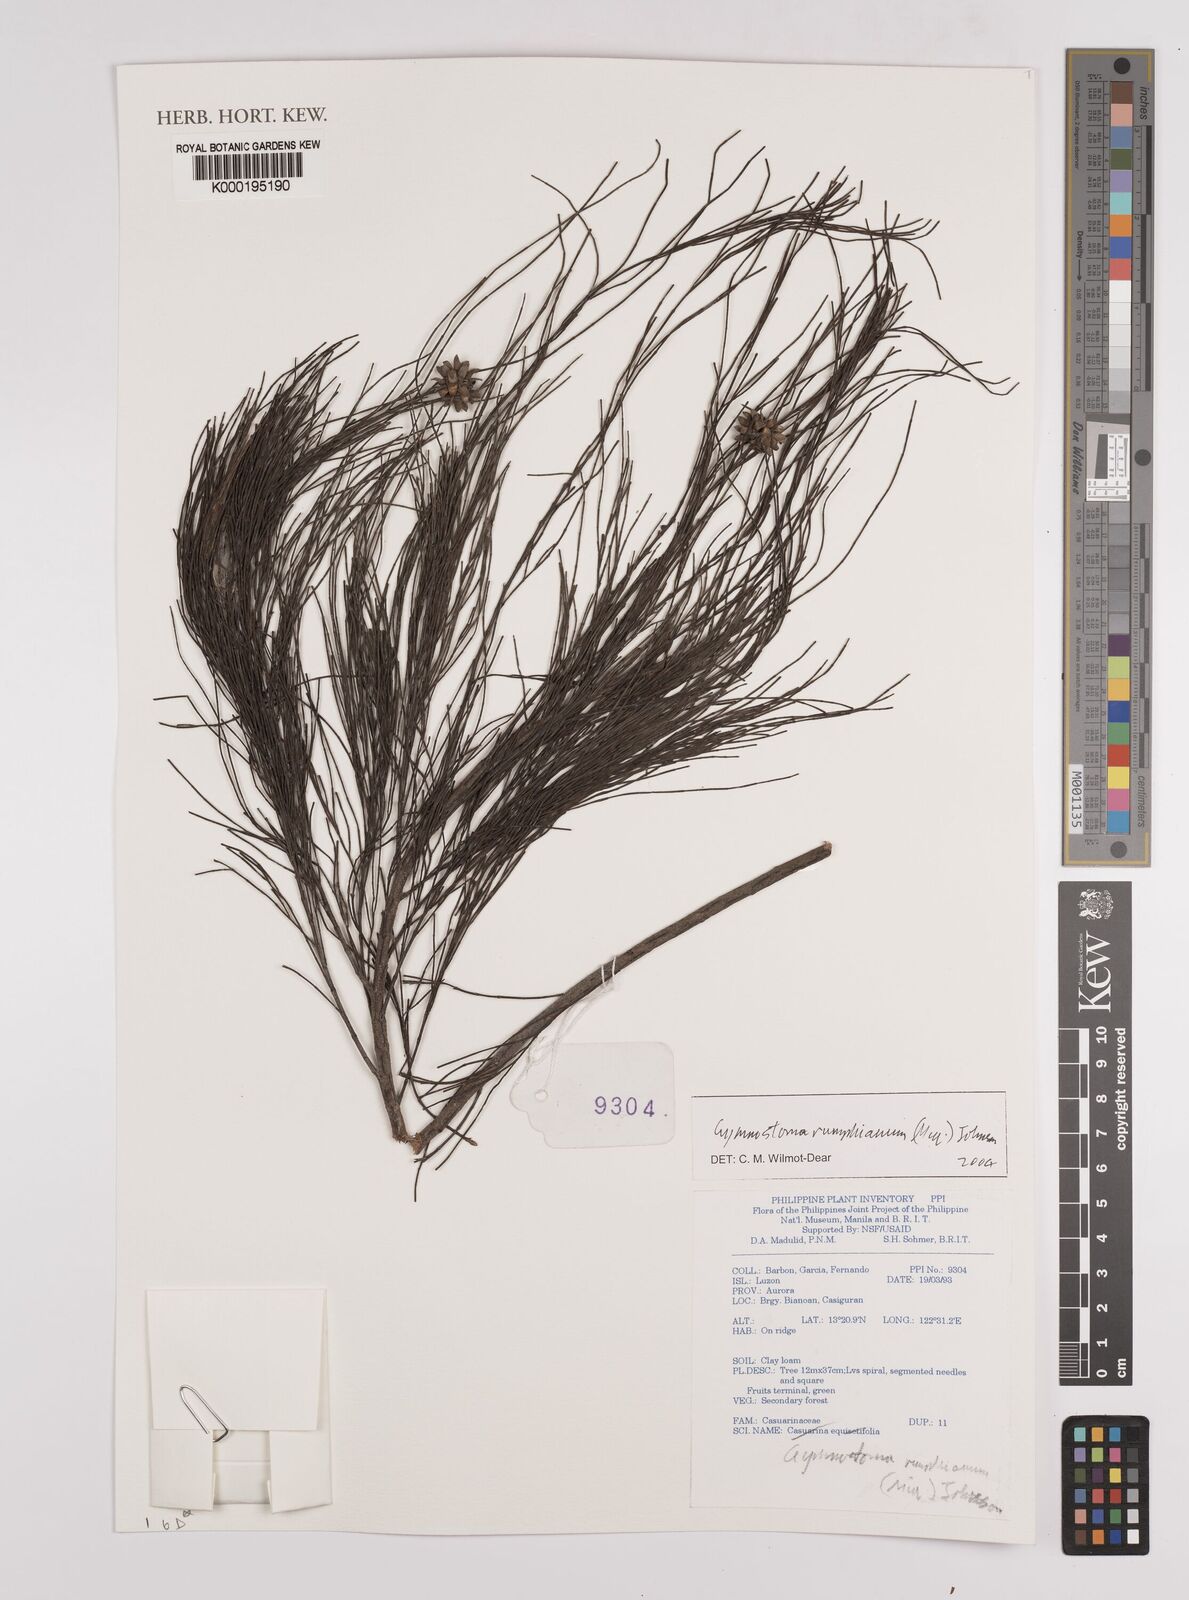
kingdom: Plantae
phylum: Tracheophyta
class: Magnoliopsida
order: Fagales
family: Casuarinaceae
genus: Gymnostoma
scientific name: Gymnostoma rumphianum
